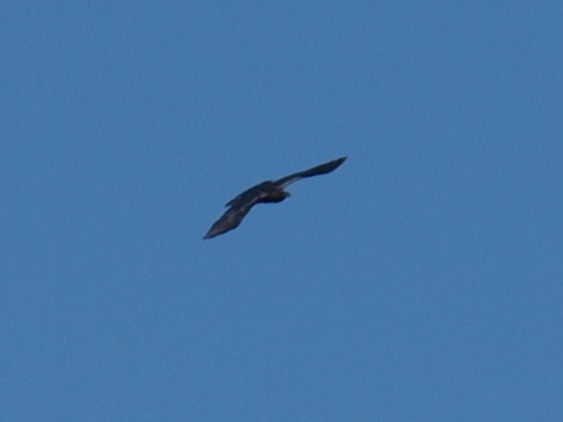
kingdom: Animalia
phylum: Chordata
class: Aves
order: Passeriformes
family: Corvidae
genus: Corvus
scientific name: Corvus corax
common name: Ravn
